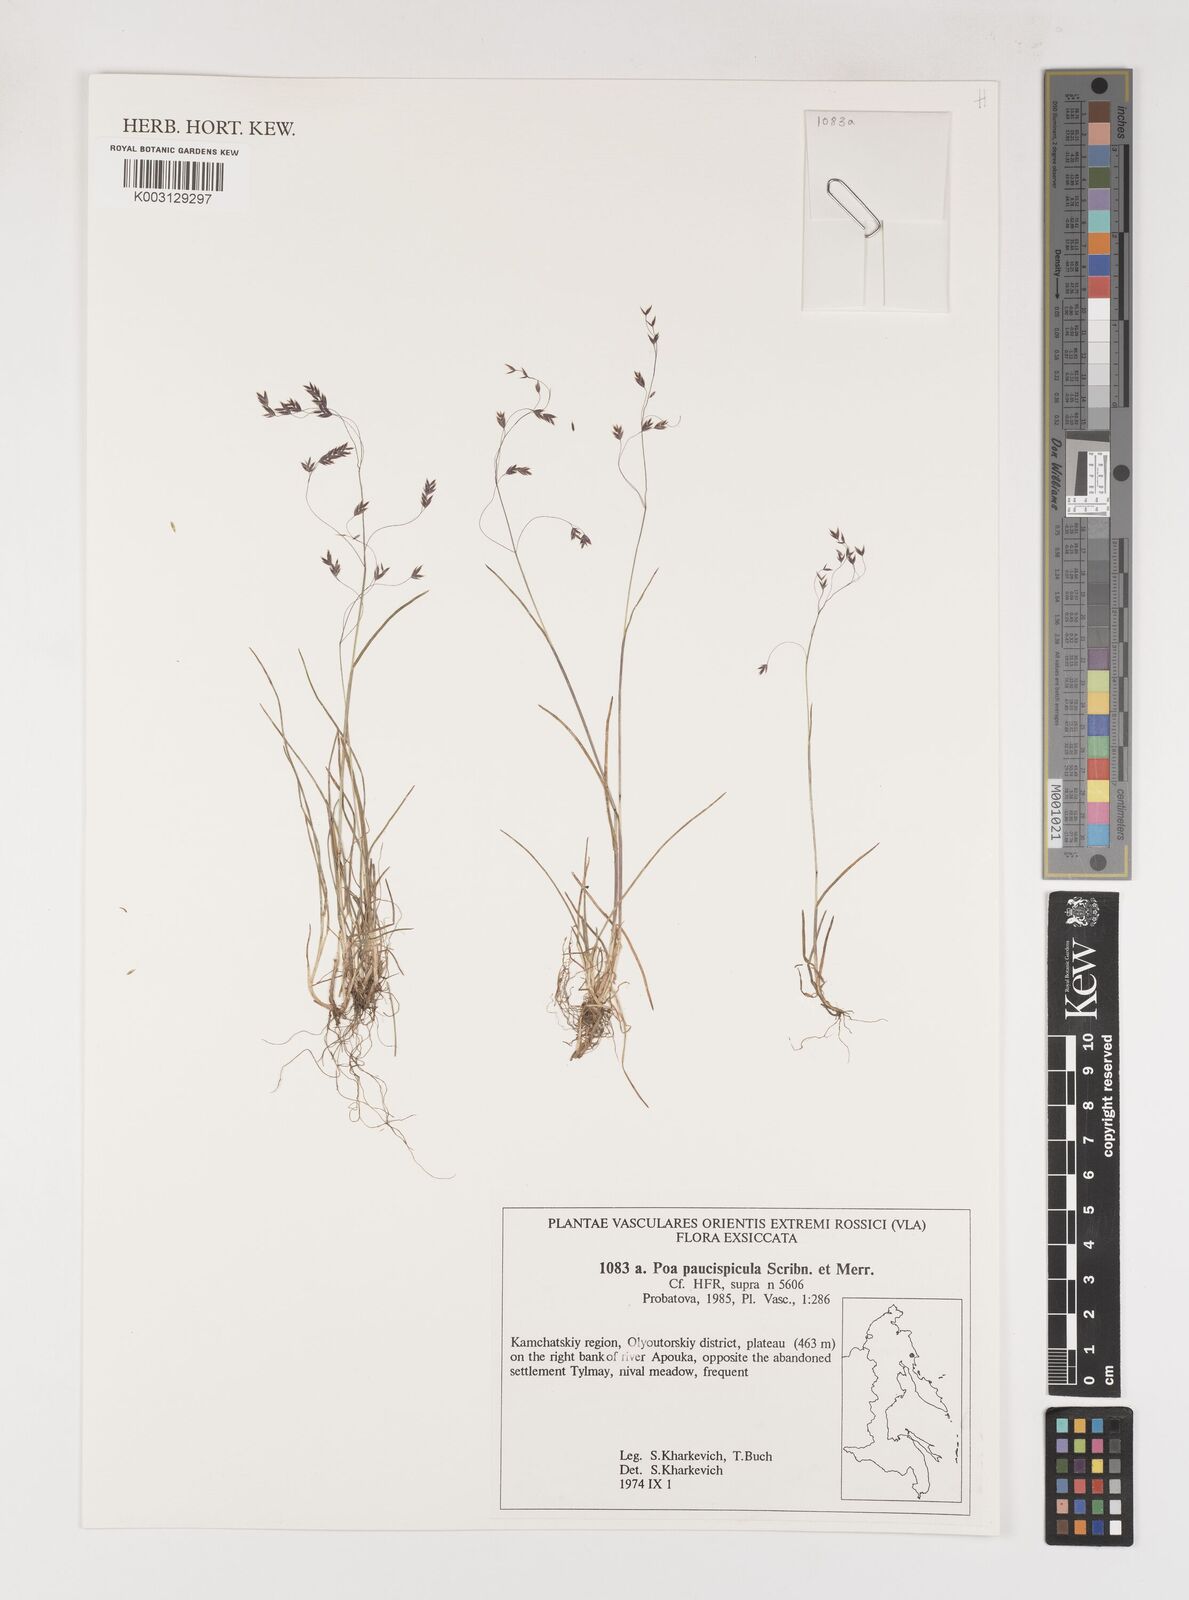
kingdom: Plantae
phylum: Tracheophyta
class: Liliopsida
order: Poales
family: Poaceae
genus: Poa
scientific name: Poa paucispicula
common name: Alaska bluegrass
